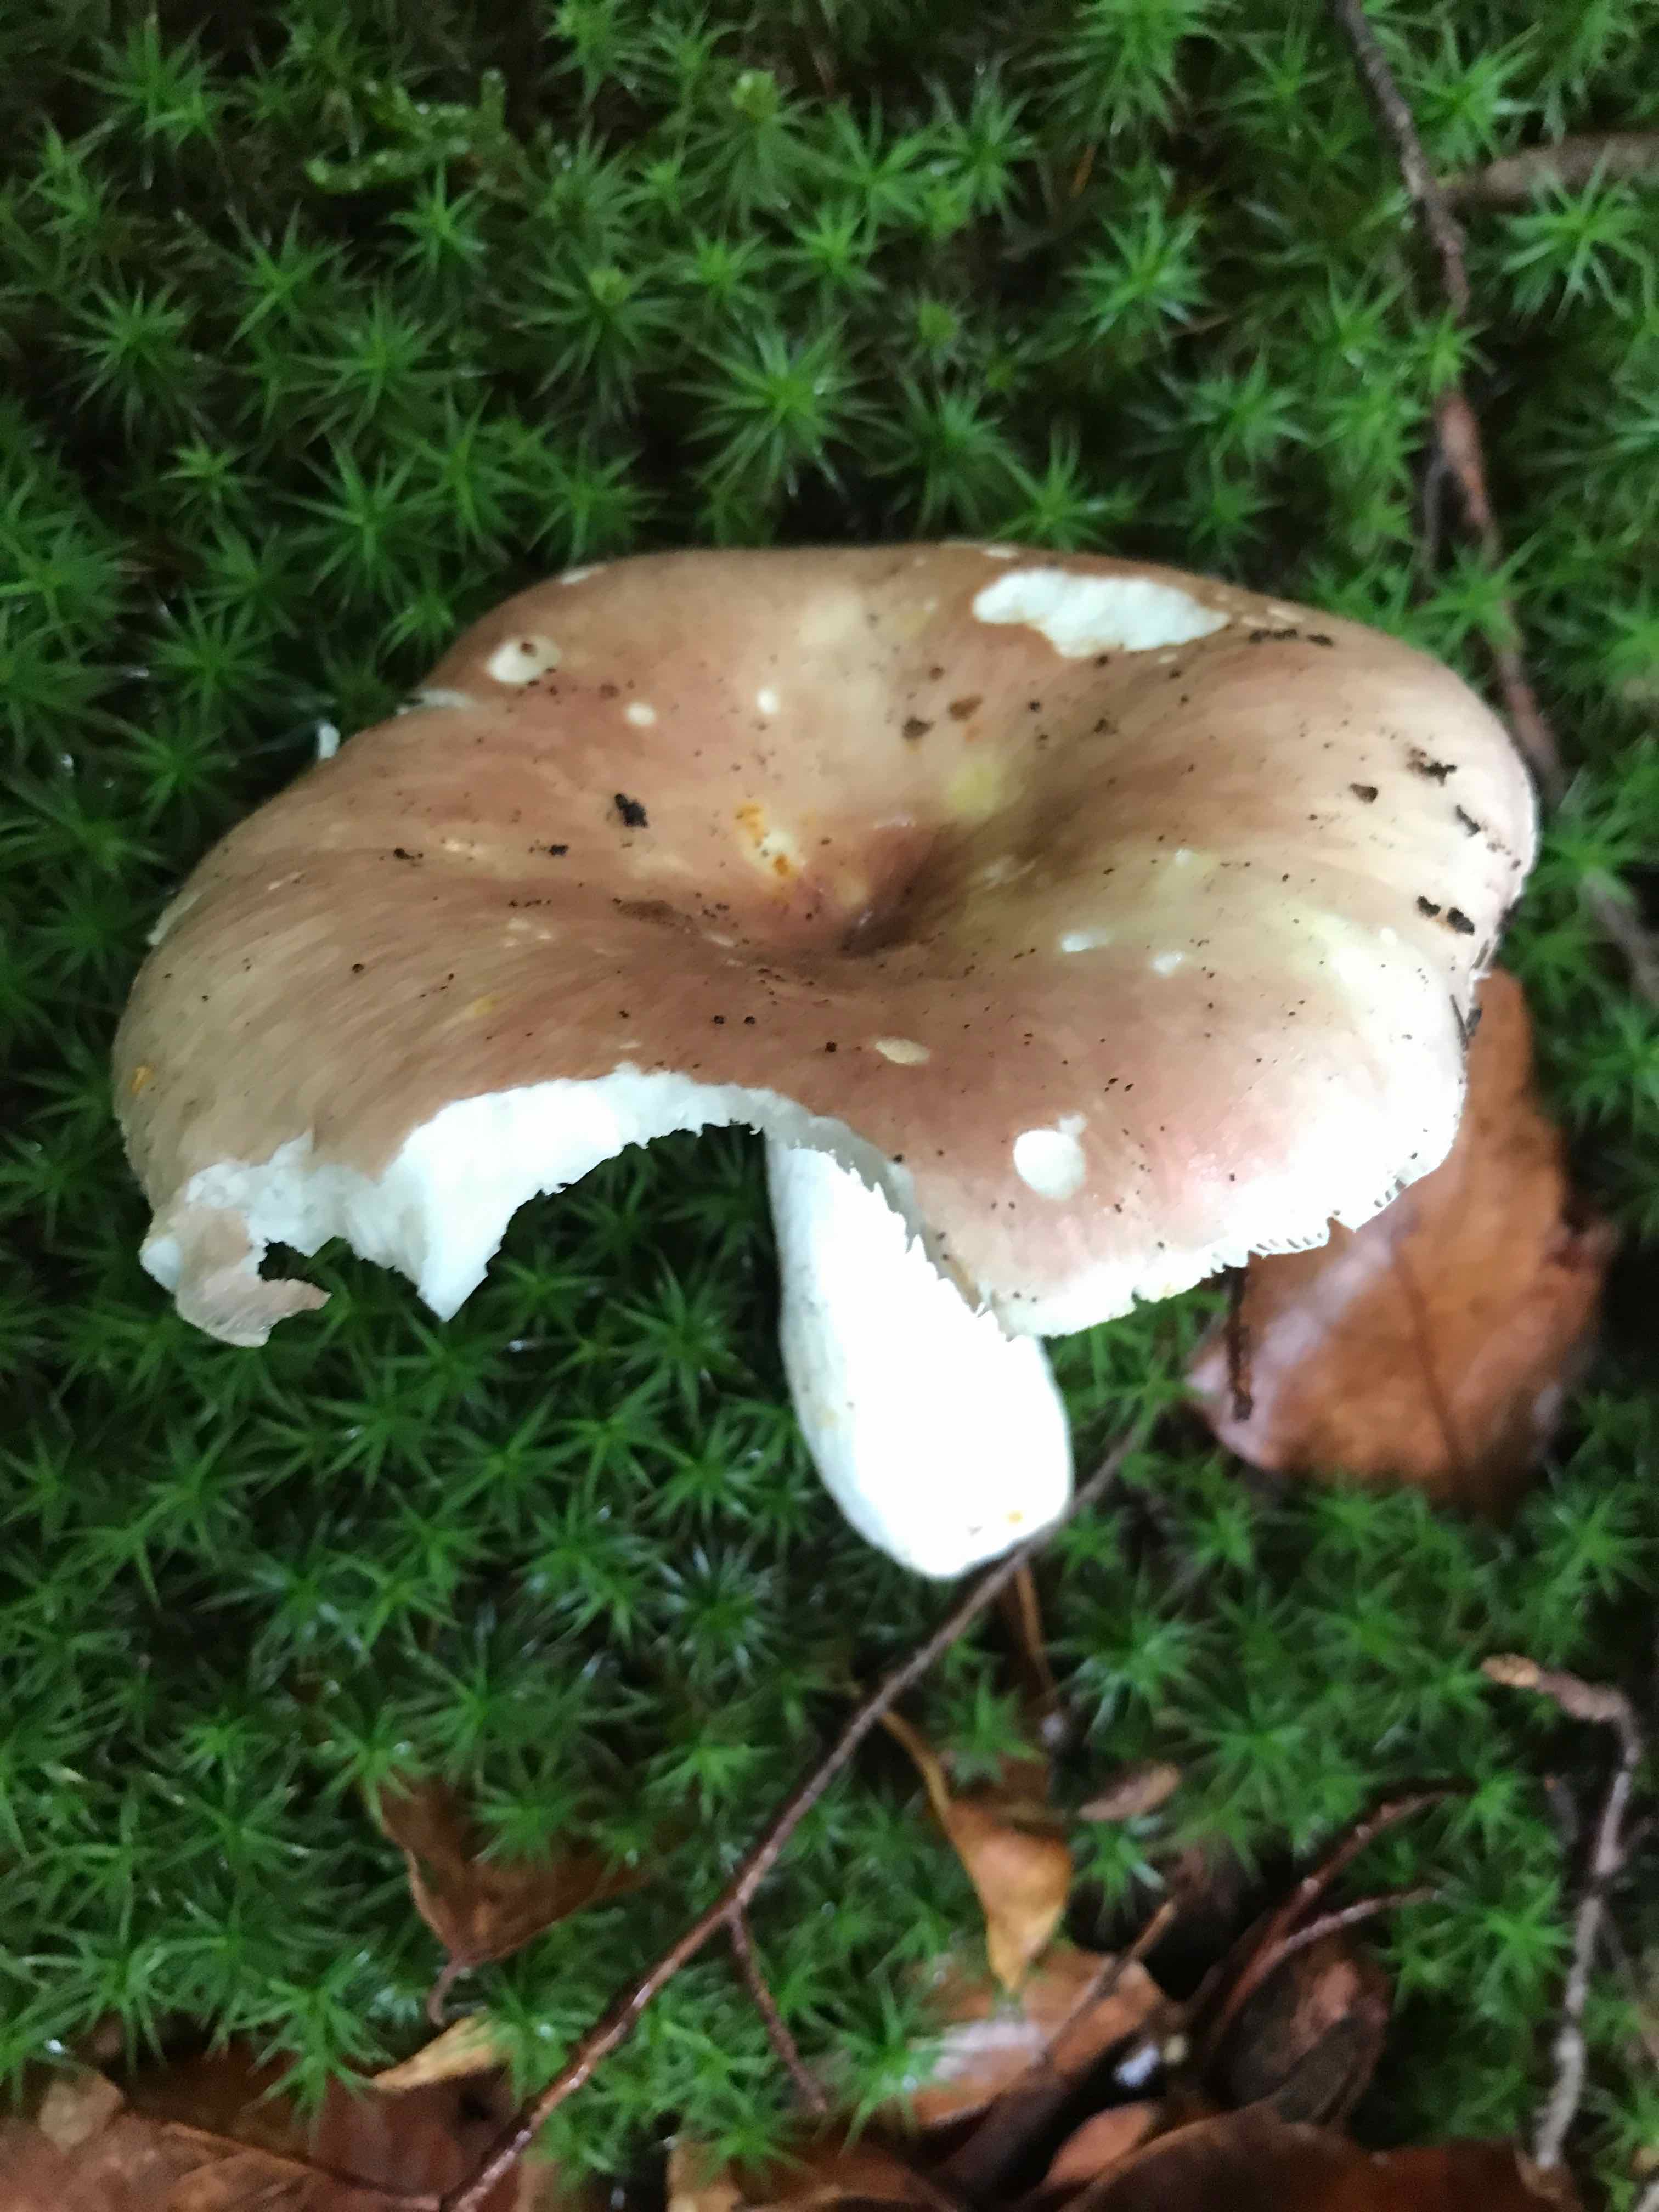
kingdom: Fungi
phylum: Basidiomycota
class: Agaricomycetes
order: Russulales
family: Russulaceae
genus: Russula
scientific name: Russula vesca
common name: spiselig skørhat
